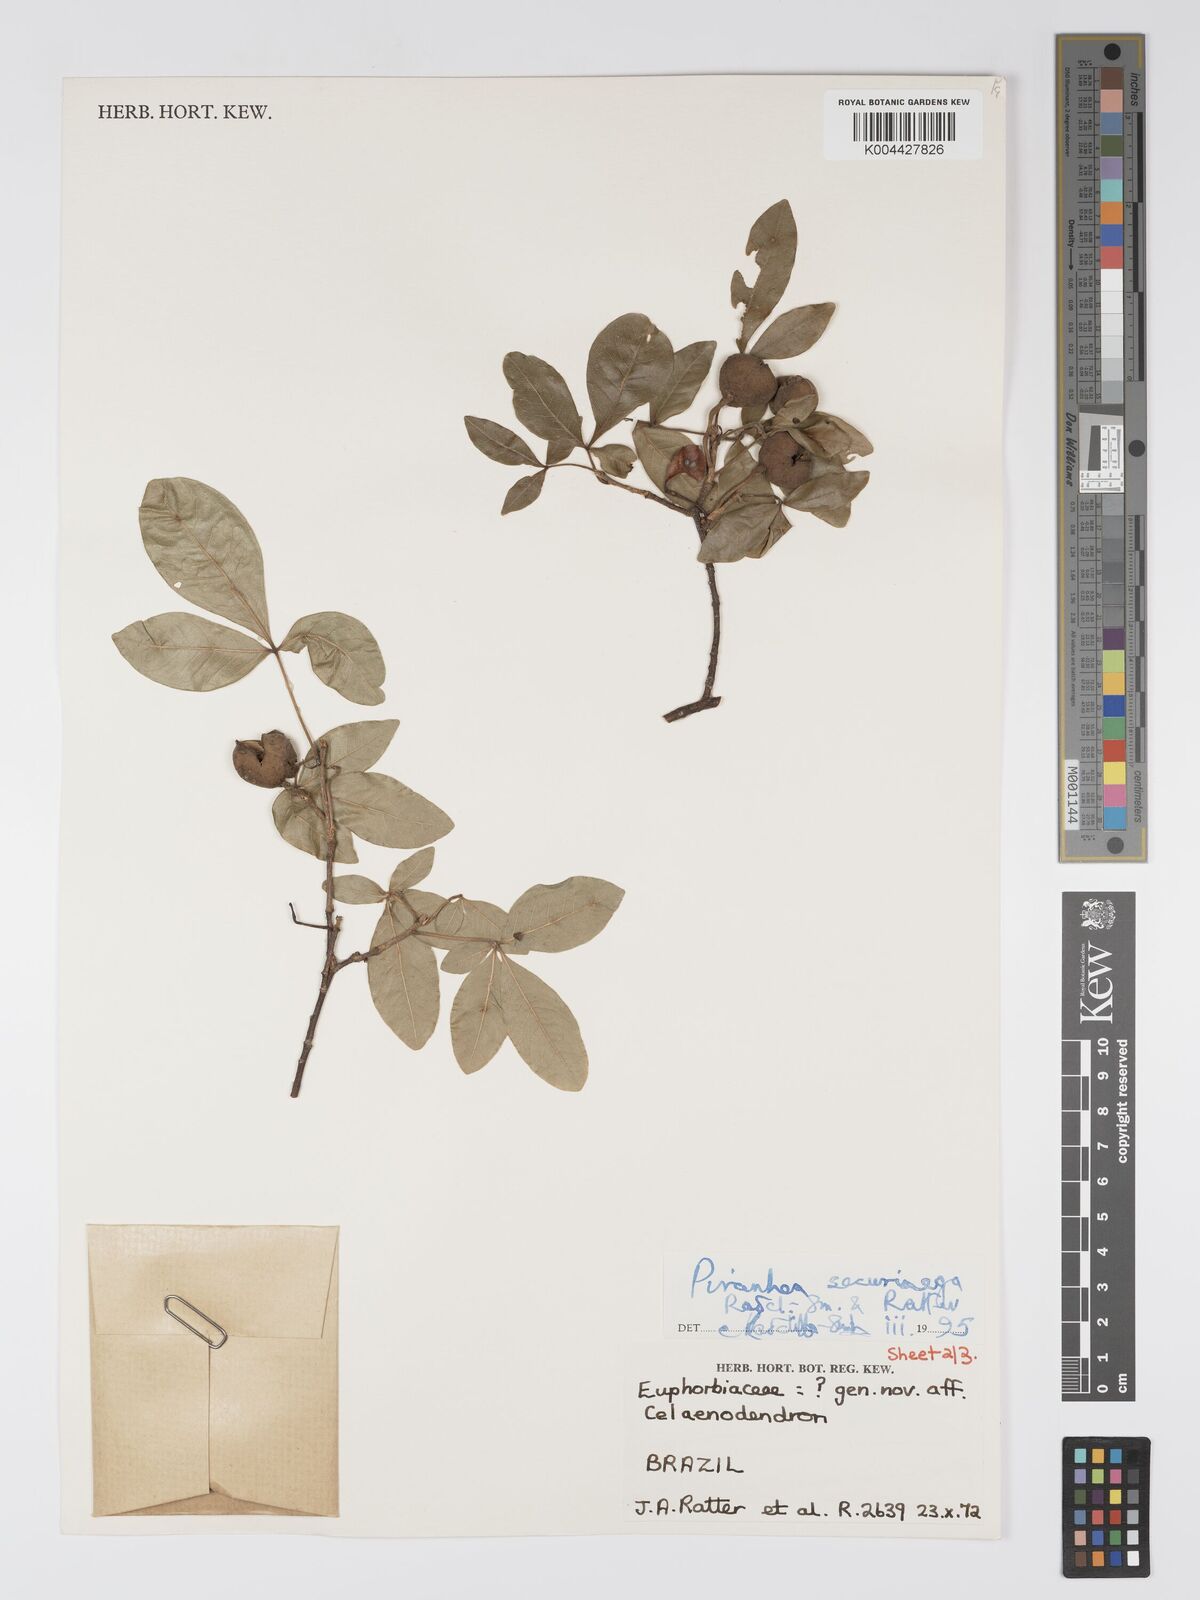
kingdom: Plantae
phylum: Tracheophyta
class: Magnoliopsida
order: Malpighiales
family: Picrodendraceae
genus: Piranhea
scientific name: Piranhea securinega
